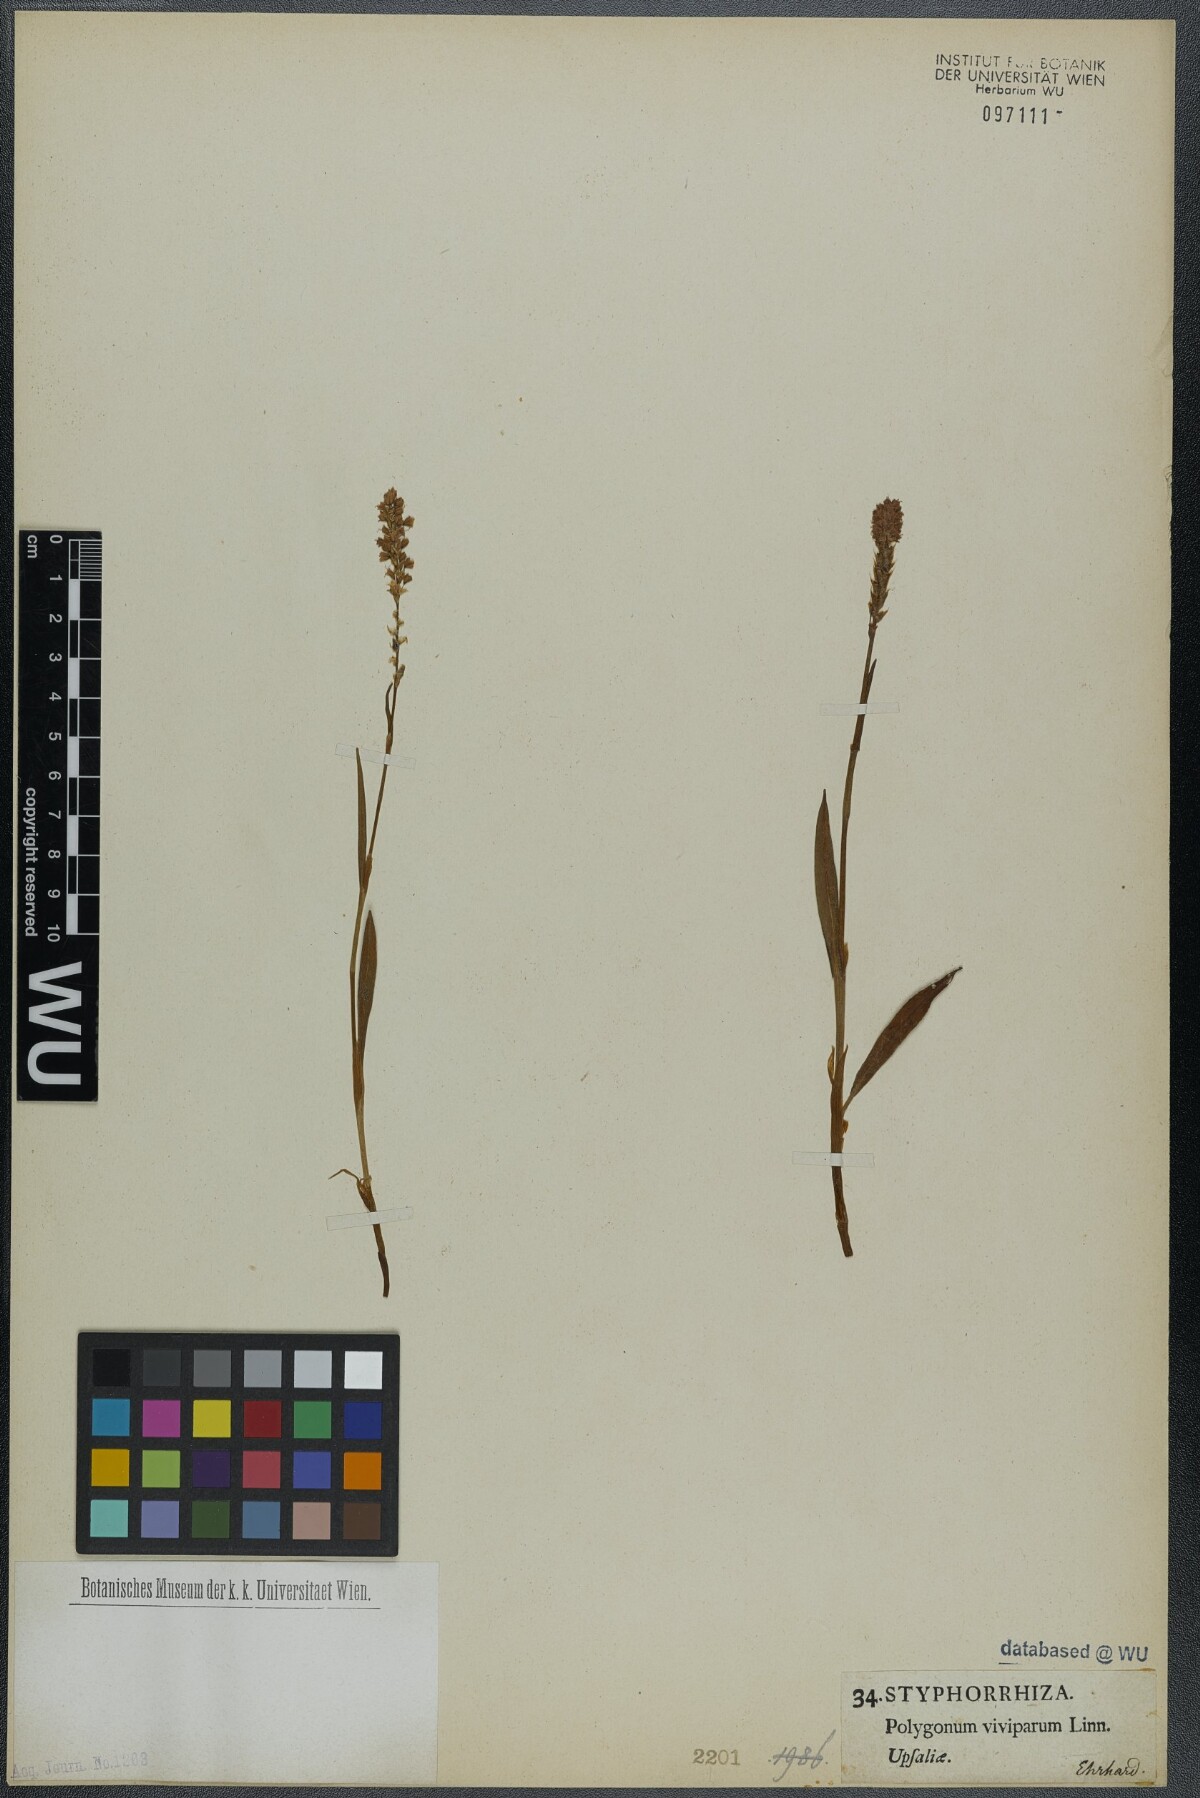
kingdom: Plantae
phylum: Tracheophyta
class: Magnoliopsida
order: Caryophyllales
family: Polygonaceae
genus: Bistorta
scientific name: Bistorta vivipara
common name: Alpine bistort
